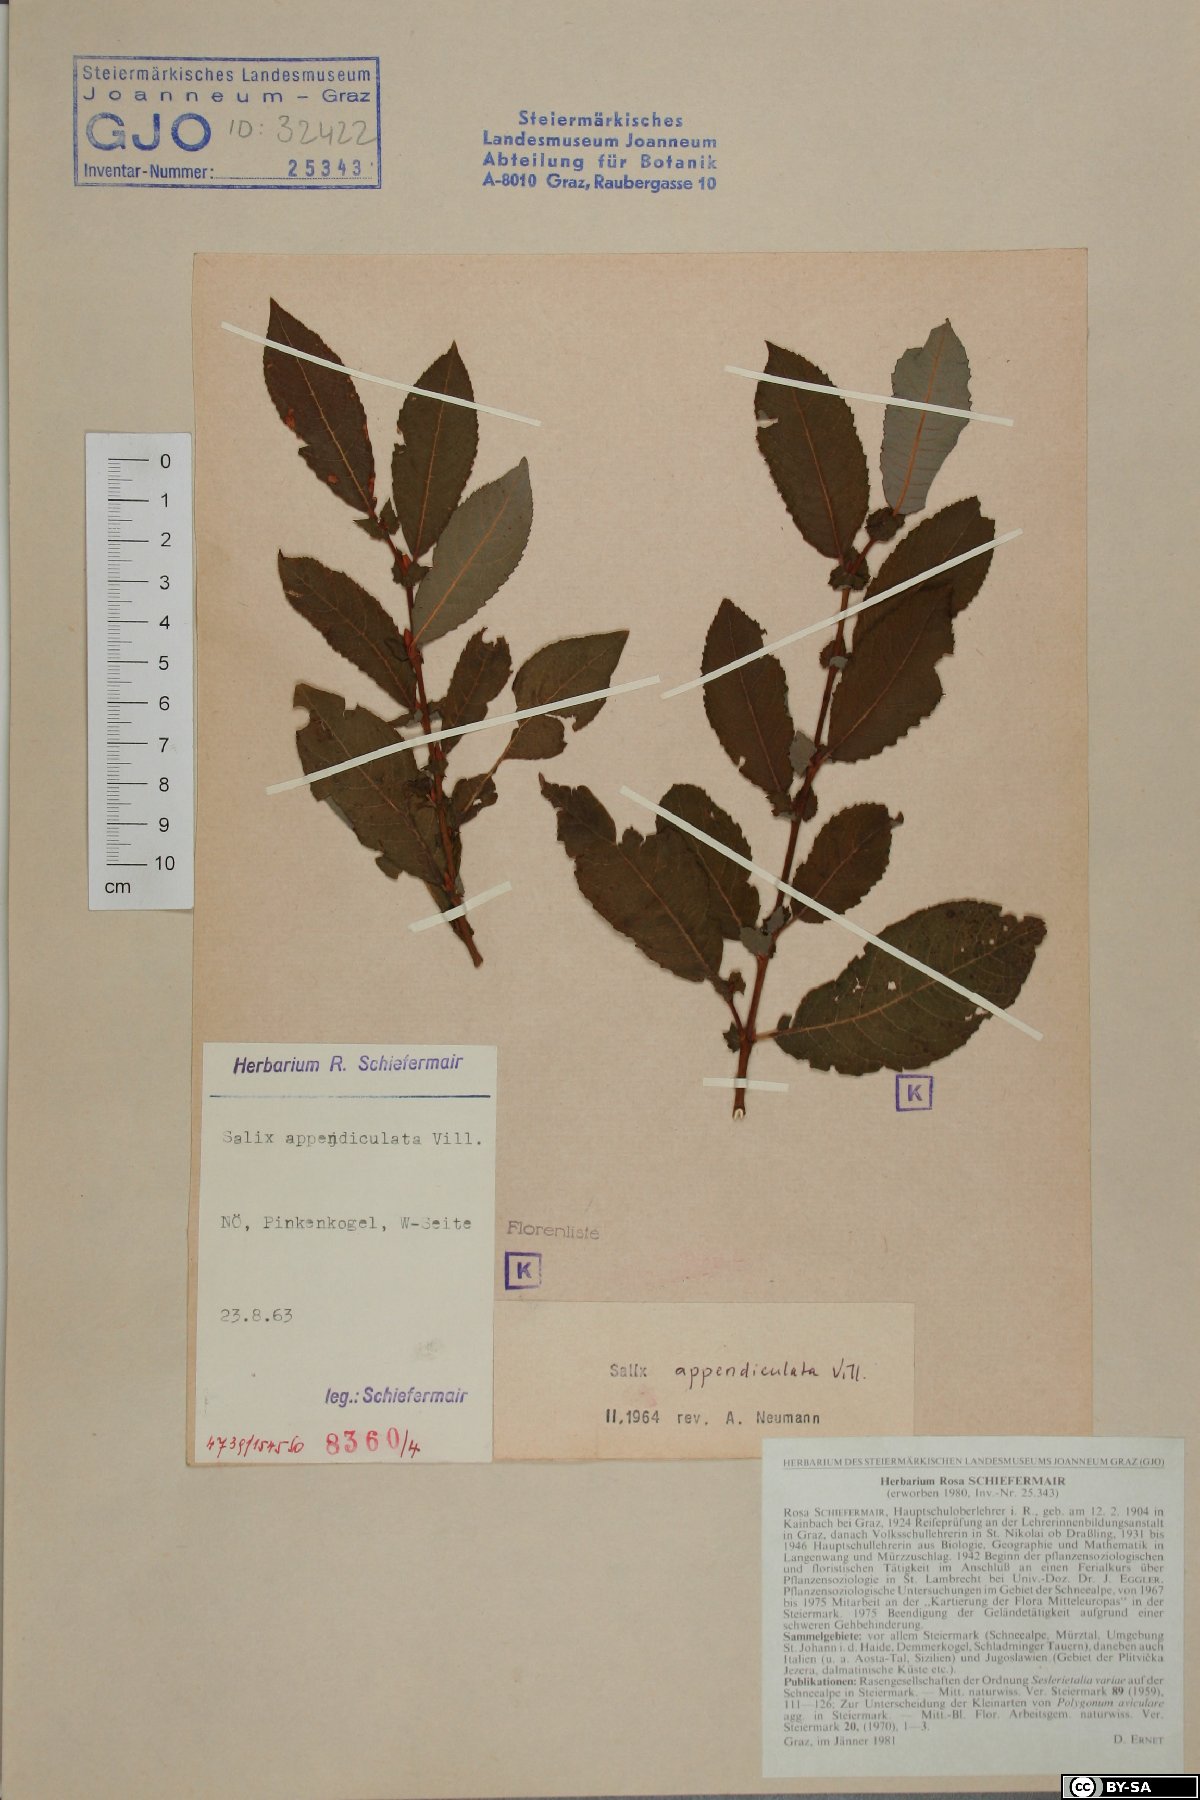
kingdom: Plantae
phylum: Tracheophyta
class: Magnoliopsida
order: Malpighiales
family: Salicaceae
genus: Salix
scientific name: Salix appendiculata
